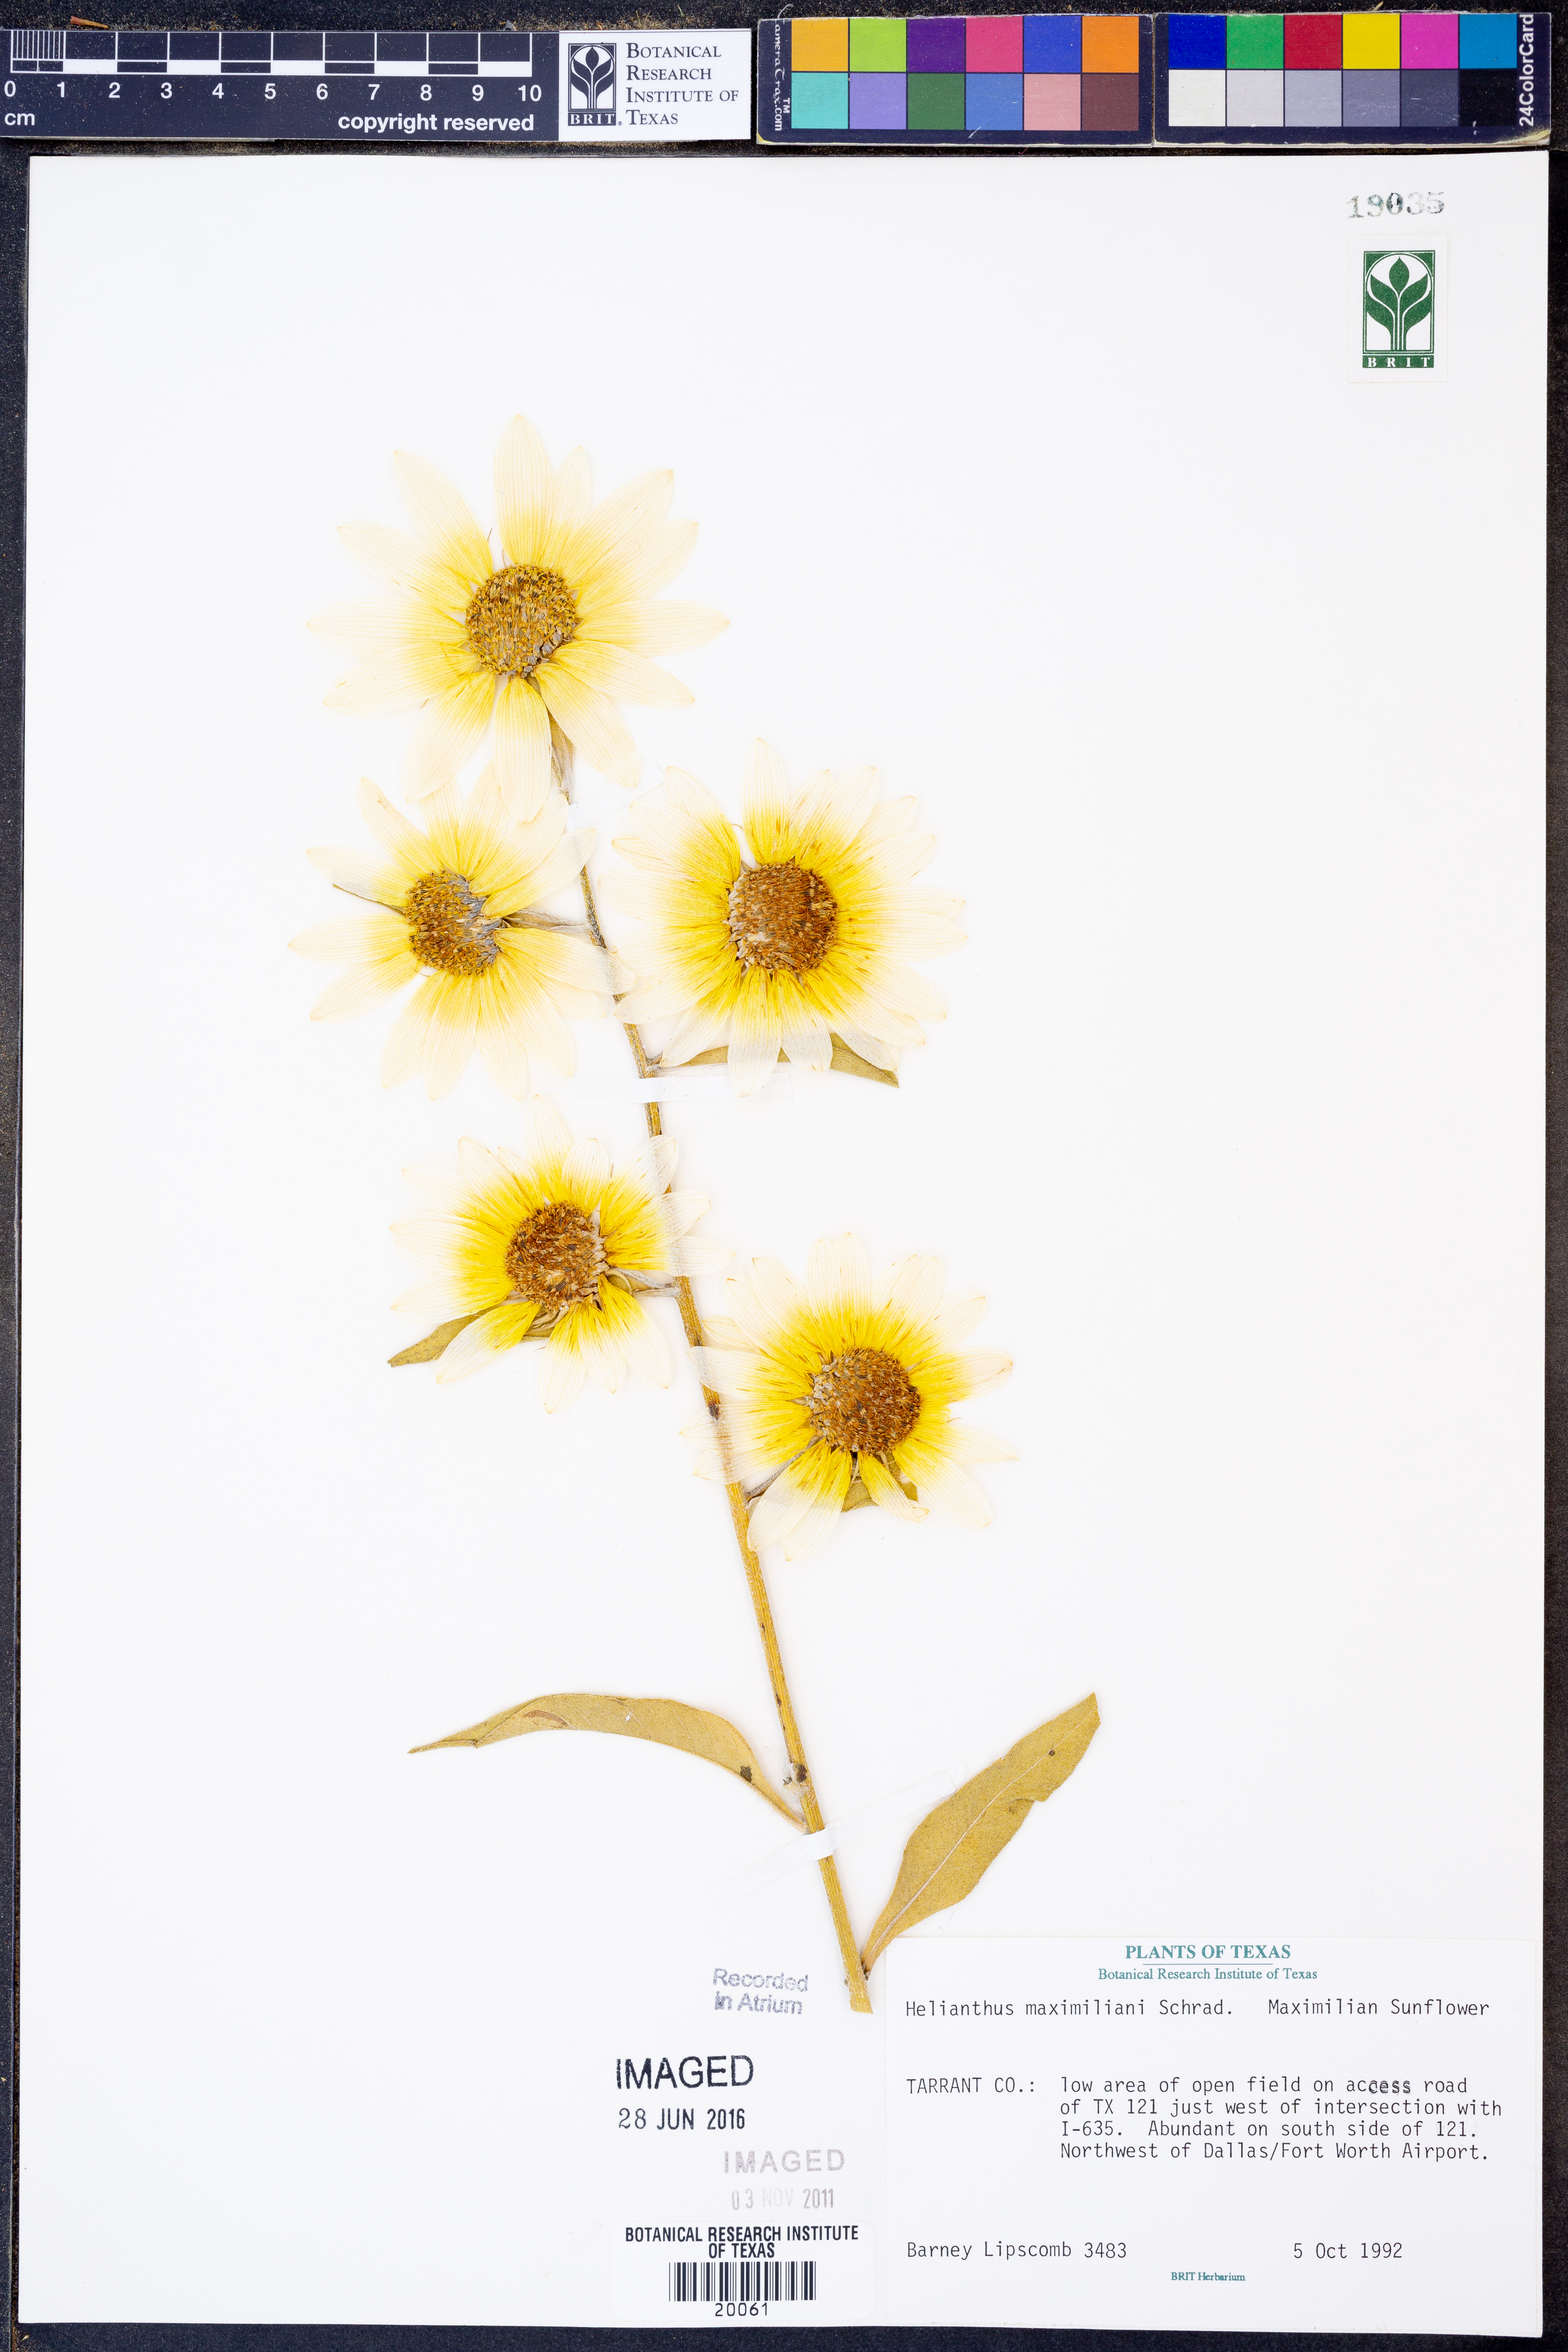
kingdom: Plantae
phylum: Tracheophyta
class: Magnoliopsida
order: Asterales
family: Asteraceae
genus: Helianthus
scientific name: Helianthus maximiliani
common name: Maximilian's sunflower
